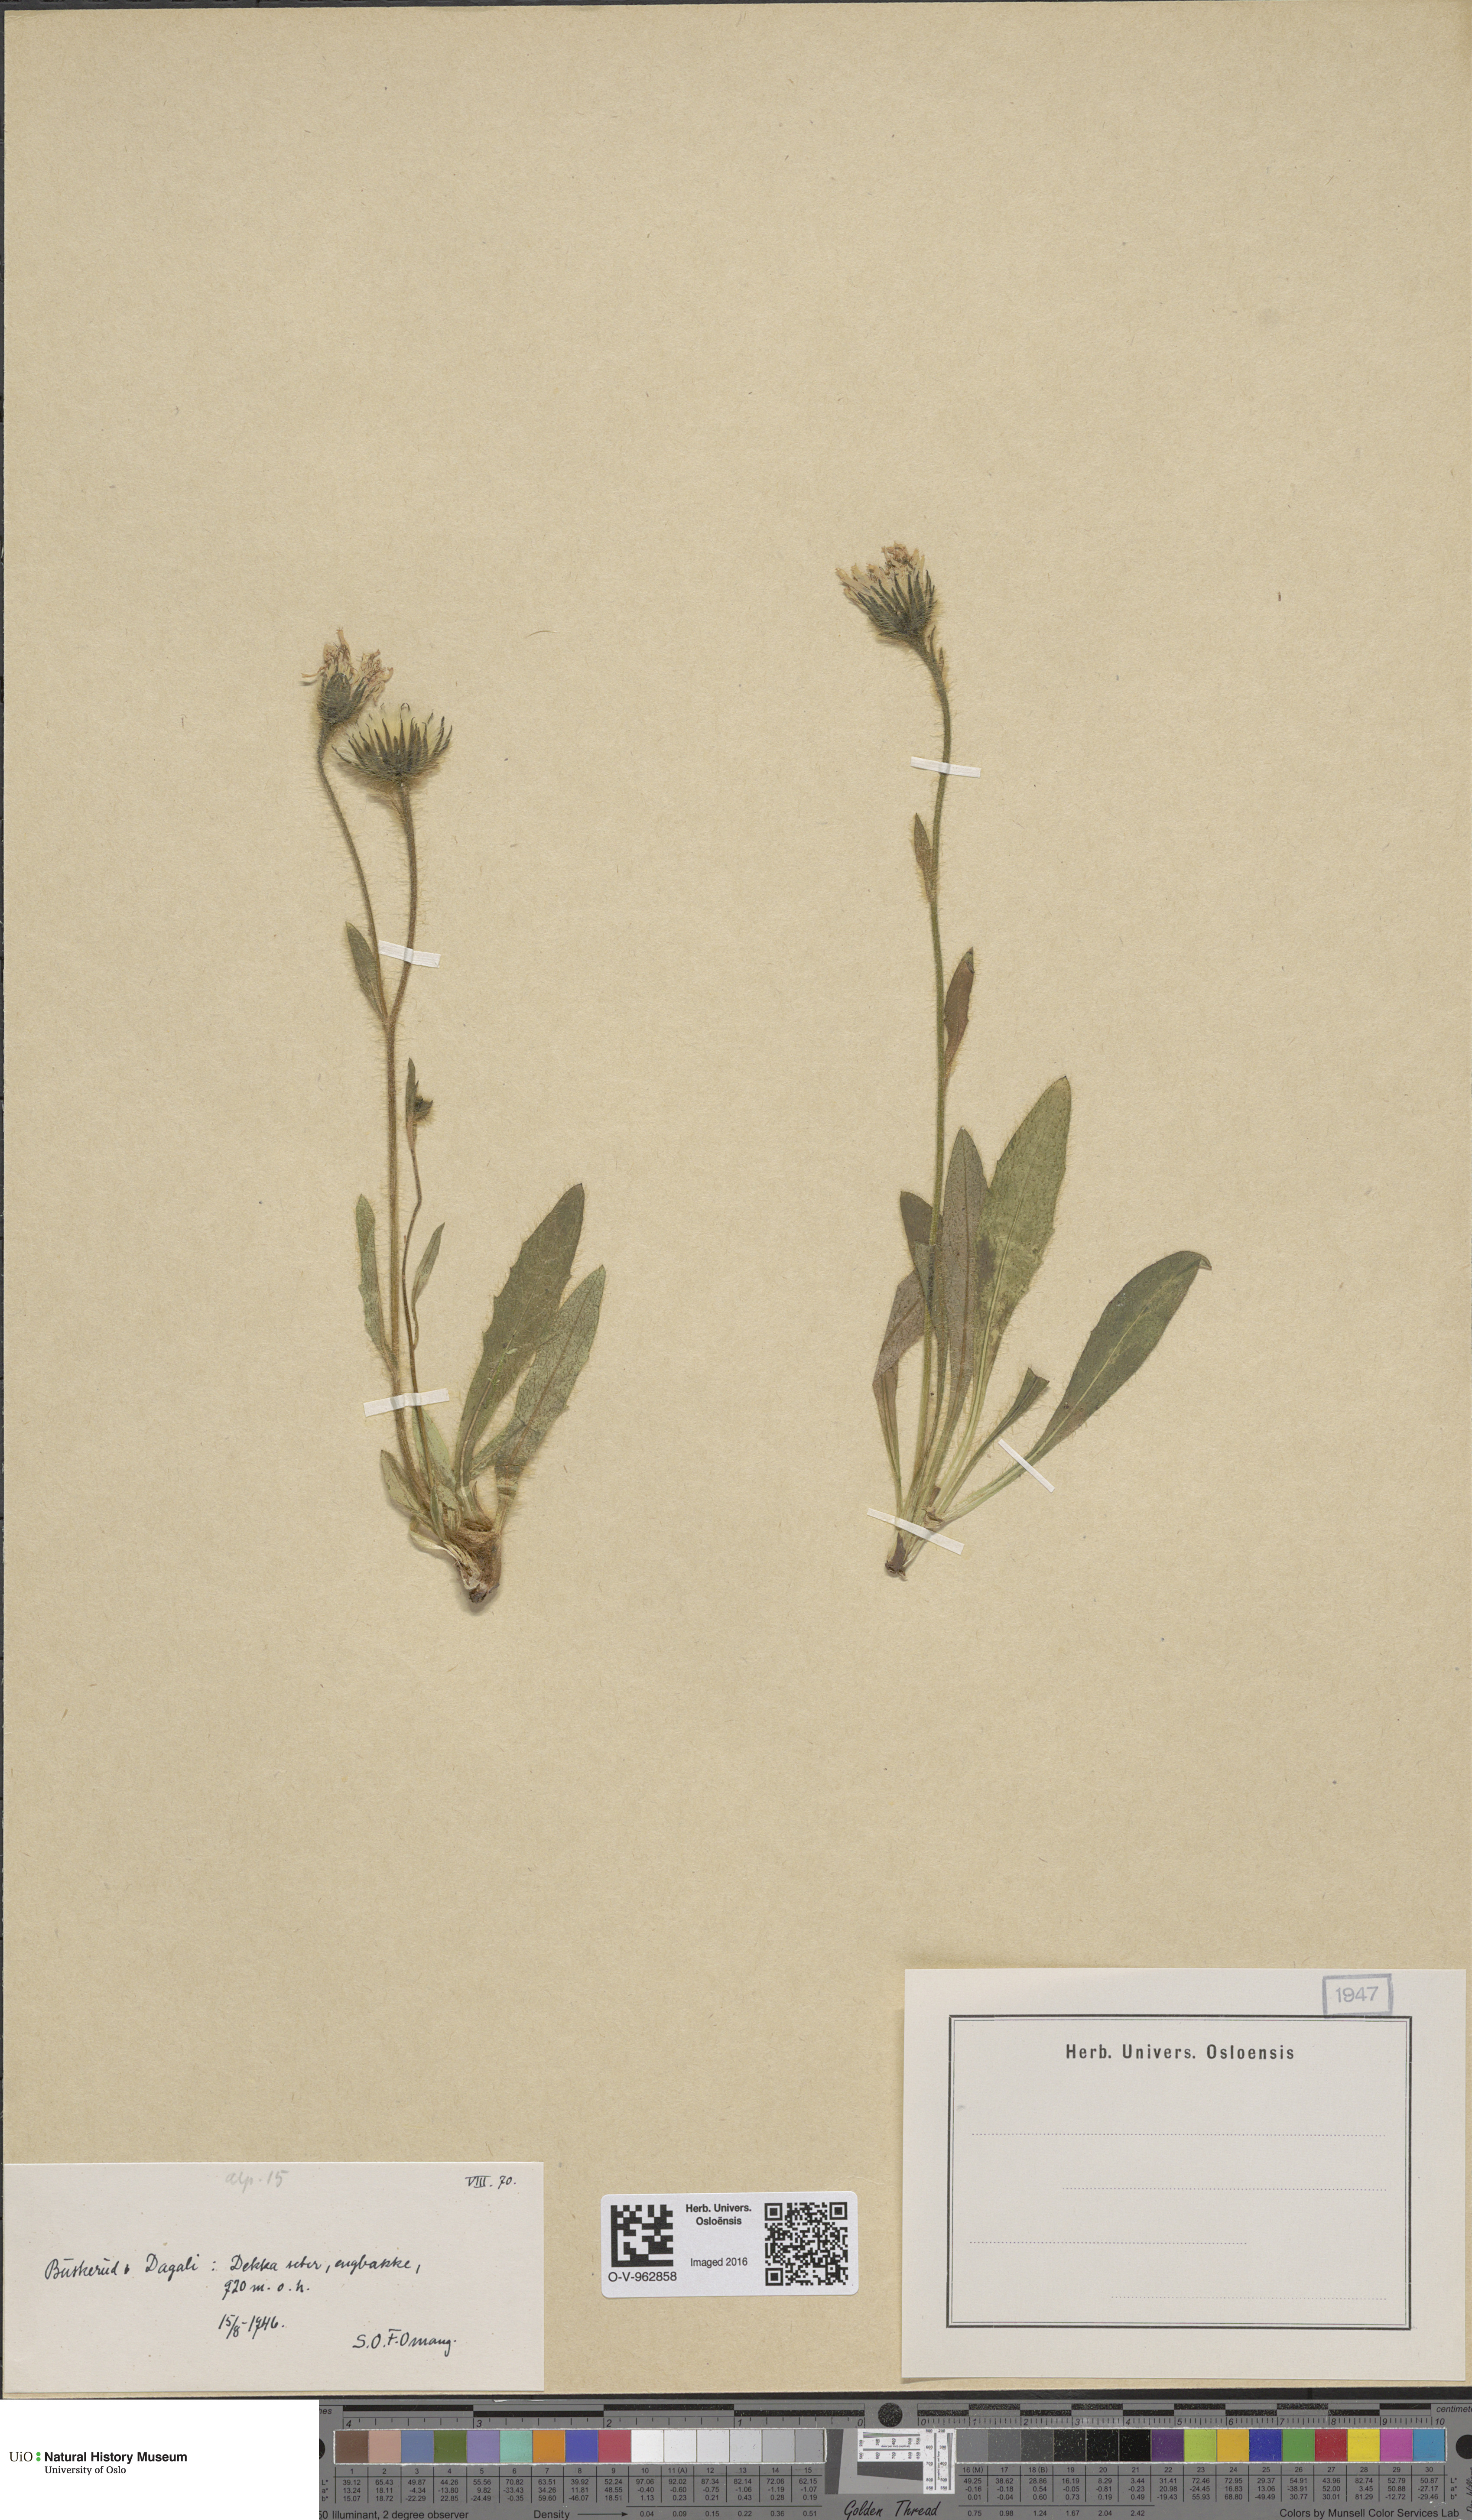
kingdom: Plantae
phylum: Tracheophyta
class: Magnoliopsida
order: Asterales
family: Asteraceae
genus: Hieracium
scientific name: Hieracium
